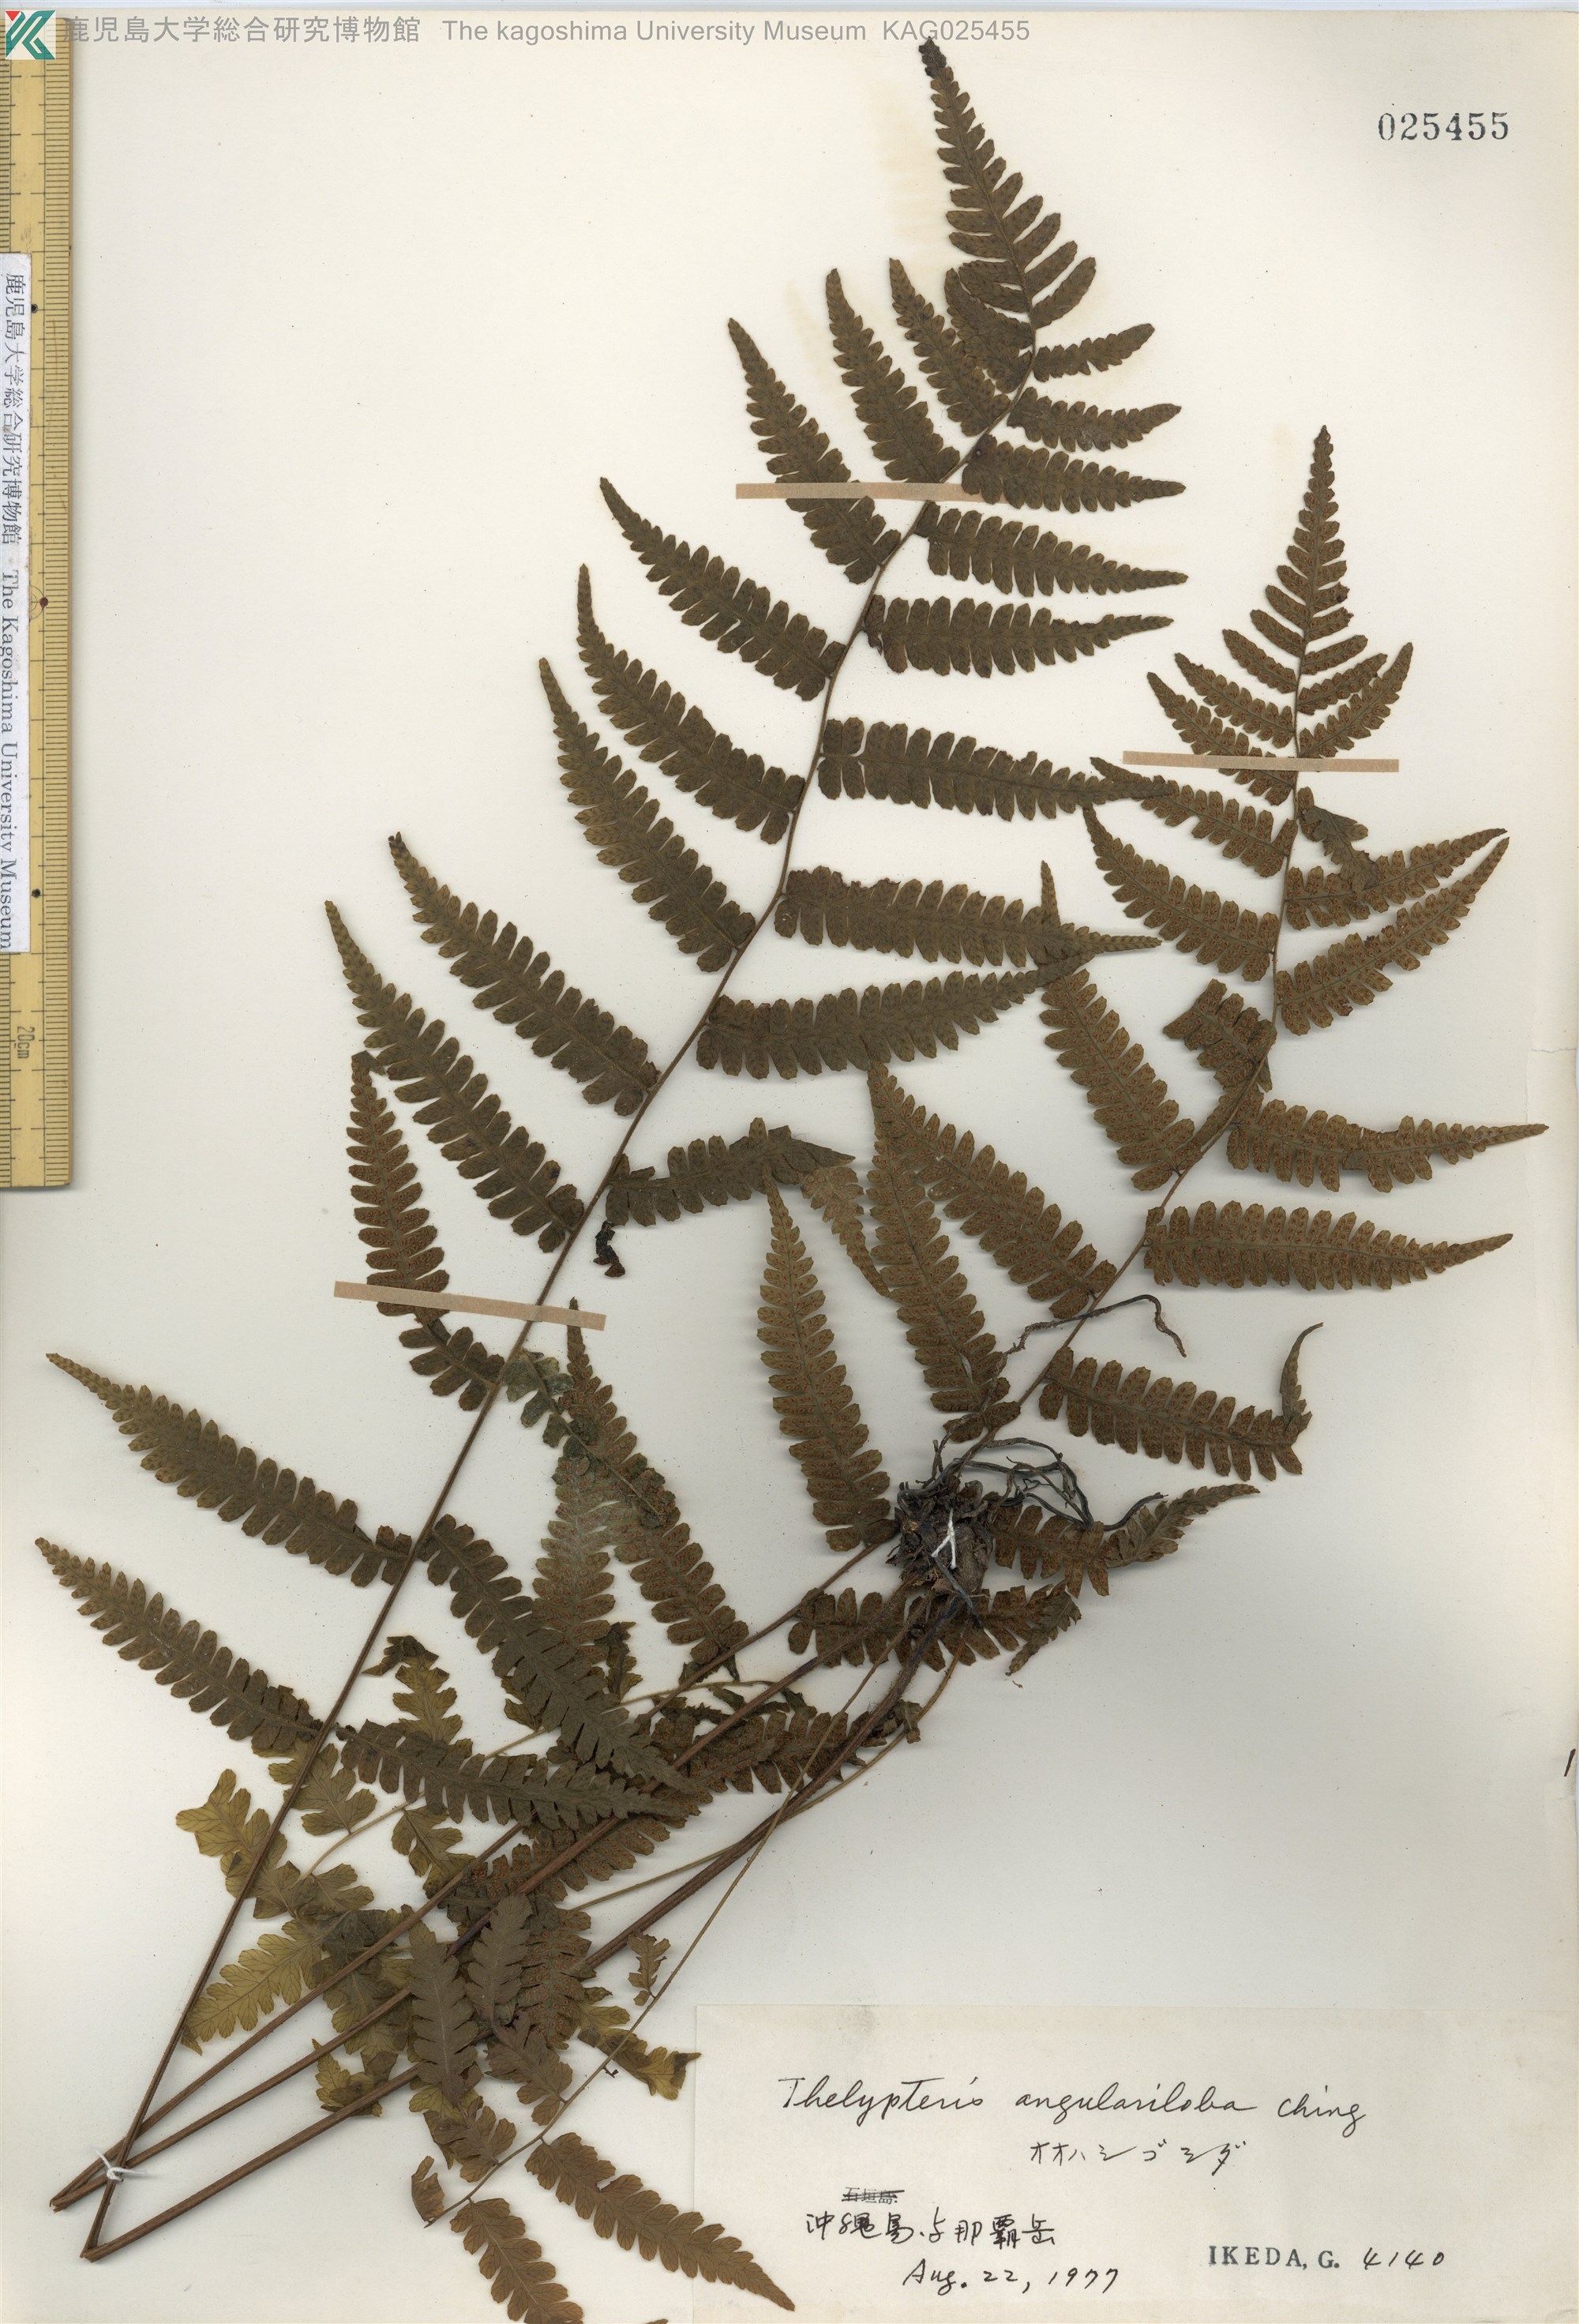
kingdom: Plantae
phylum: Tracheophyta
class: Polypodiopsida
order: Polypodiales
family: Thelypteridaceae
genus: Coryphopteris
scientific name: Coryphopteris hirsutipes
